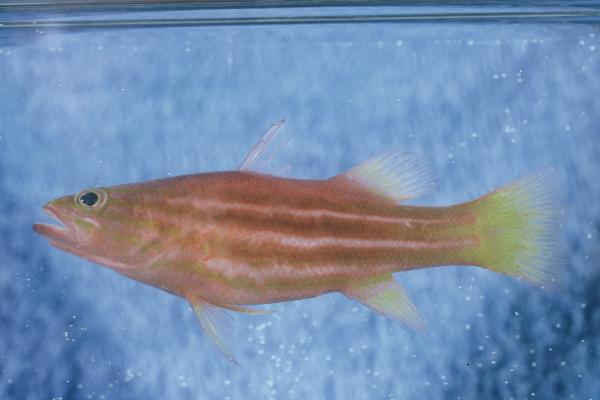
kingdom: Animalia
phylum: Chordata
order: Perciformes
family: Serranidae
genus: Liopropoma
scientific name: Liopropoma africanum
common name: African basslet
